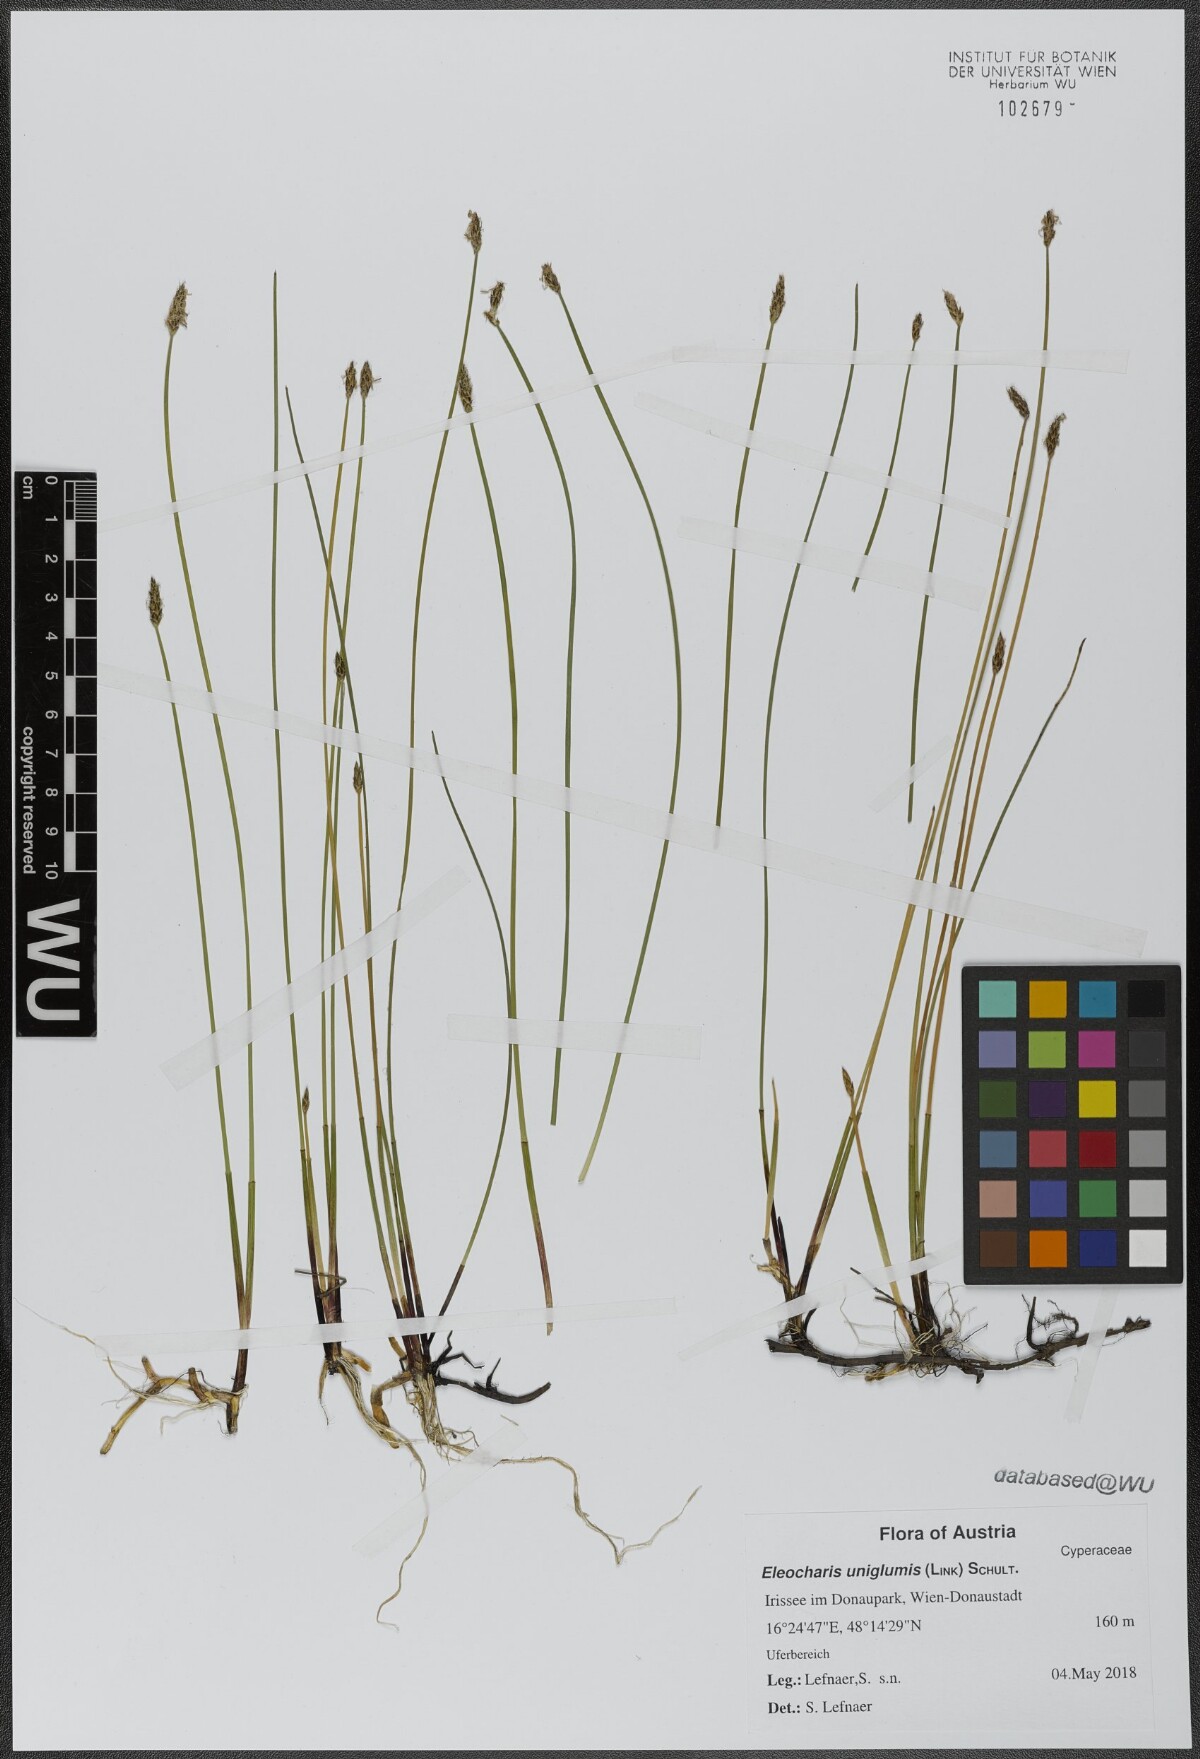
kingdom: Plantae
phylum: Tracheophyta
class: Liliopsida
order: Poales
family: Cyperaceae
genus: Eleocharis
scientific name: Eleocharis uniglumis
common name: Slender spike-rush
